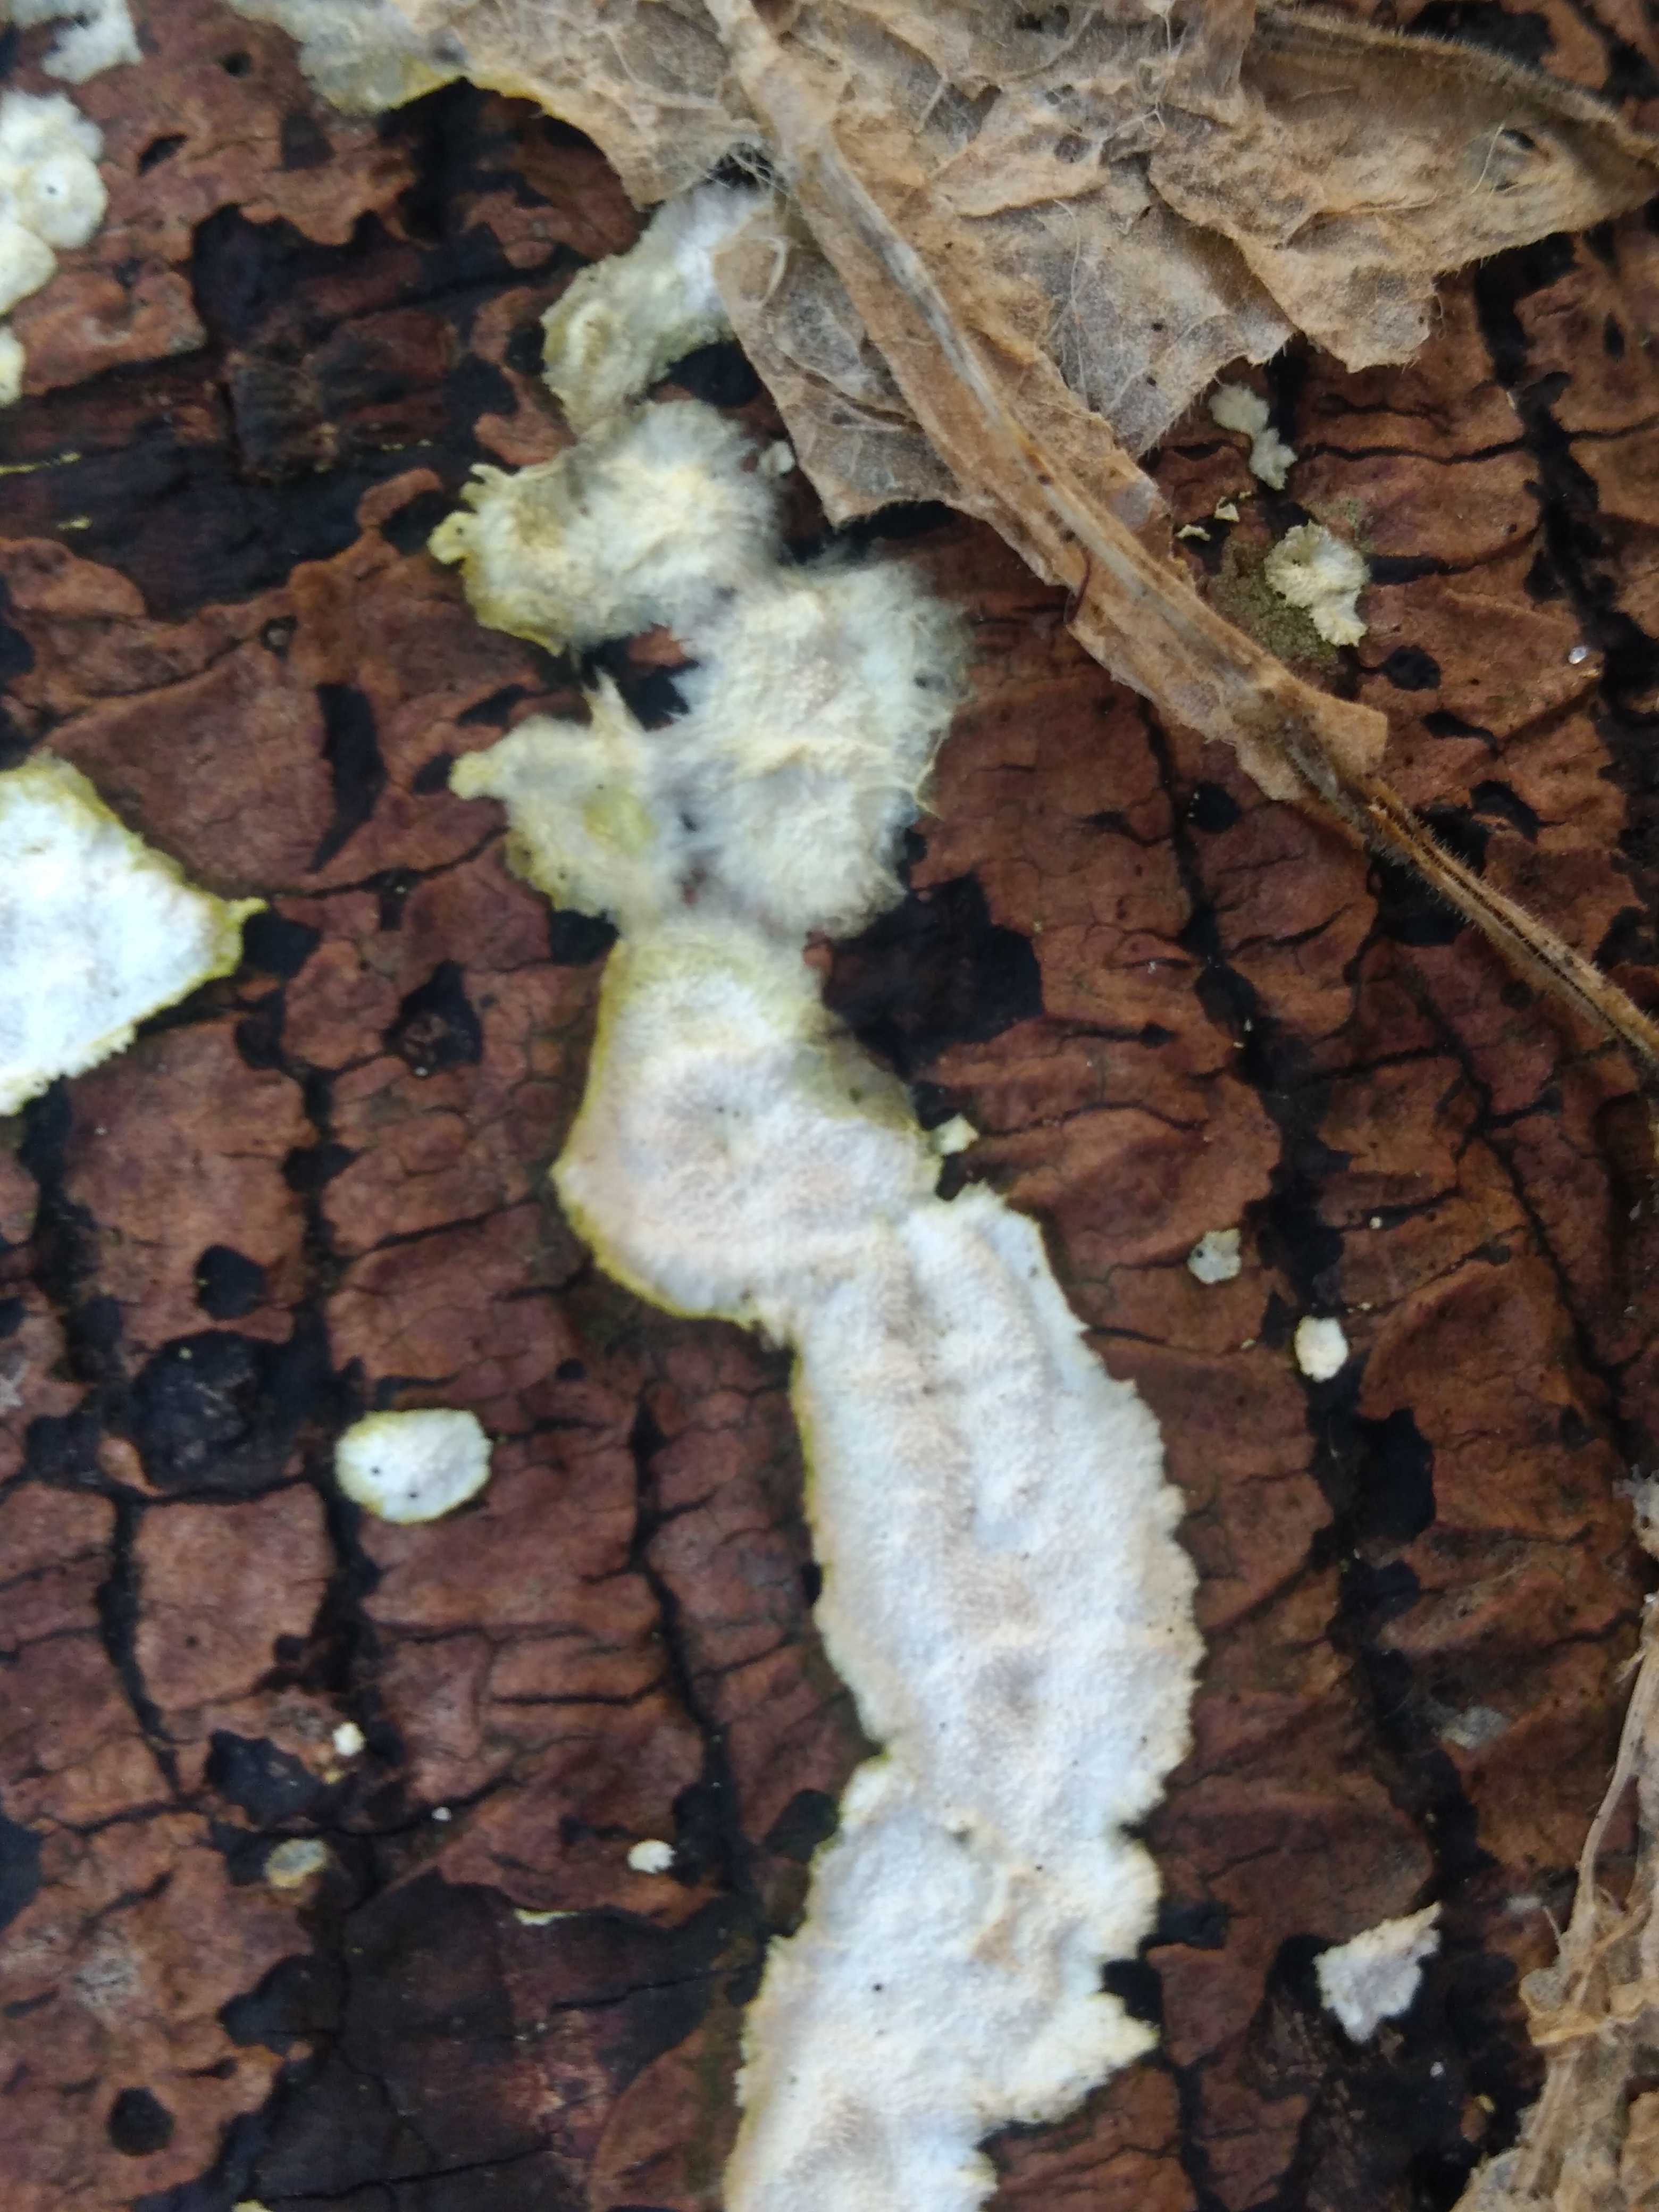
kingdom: Fungi
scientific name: Fungi
